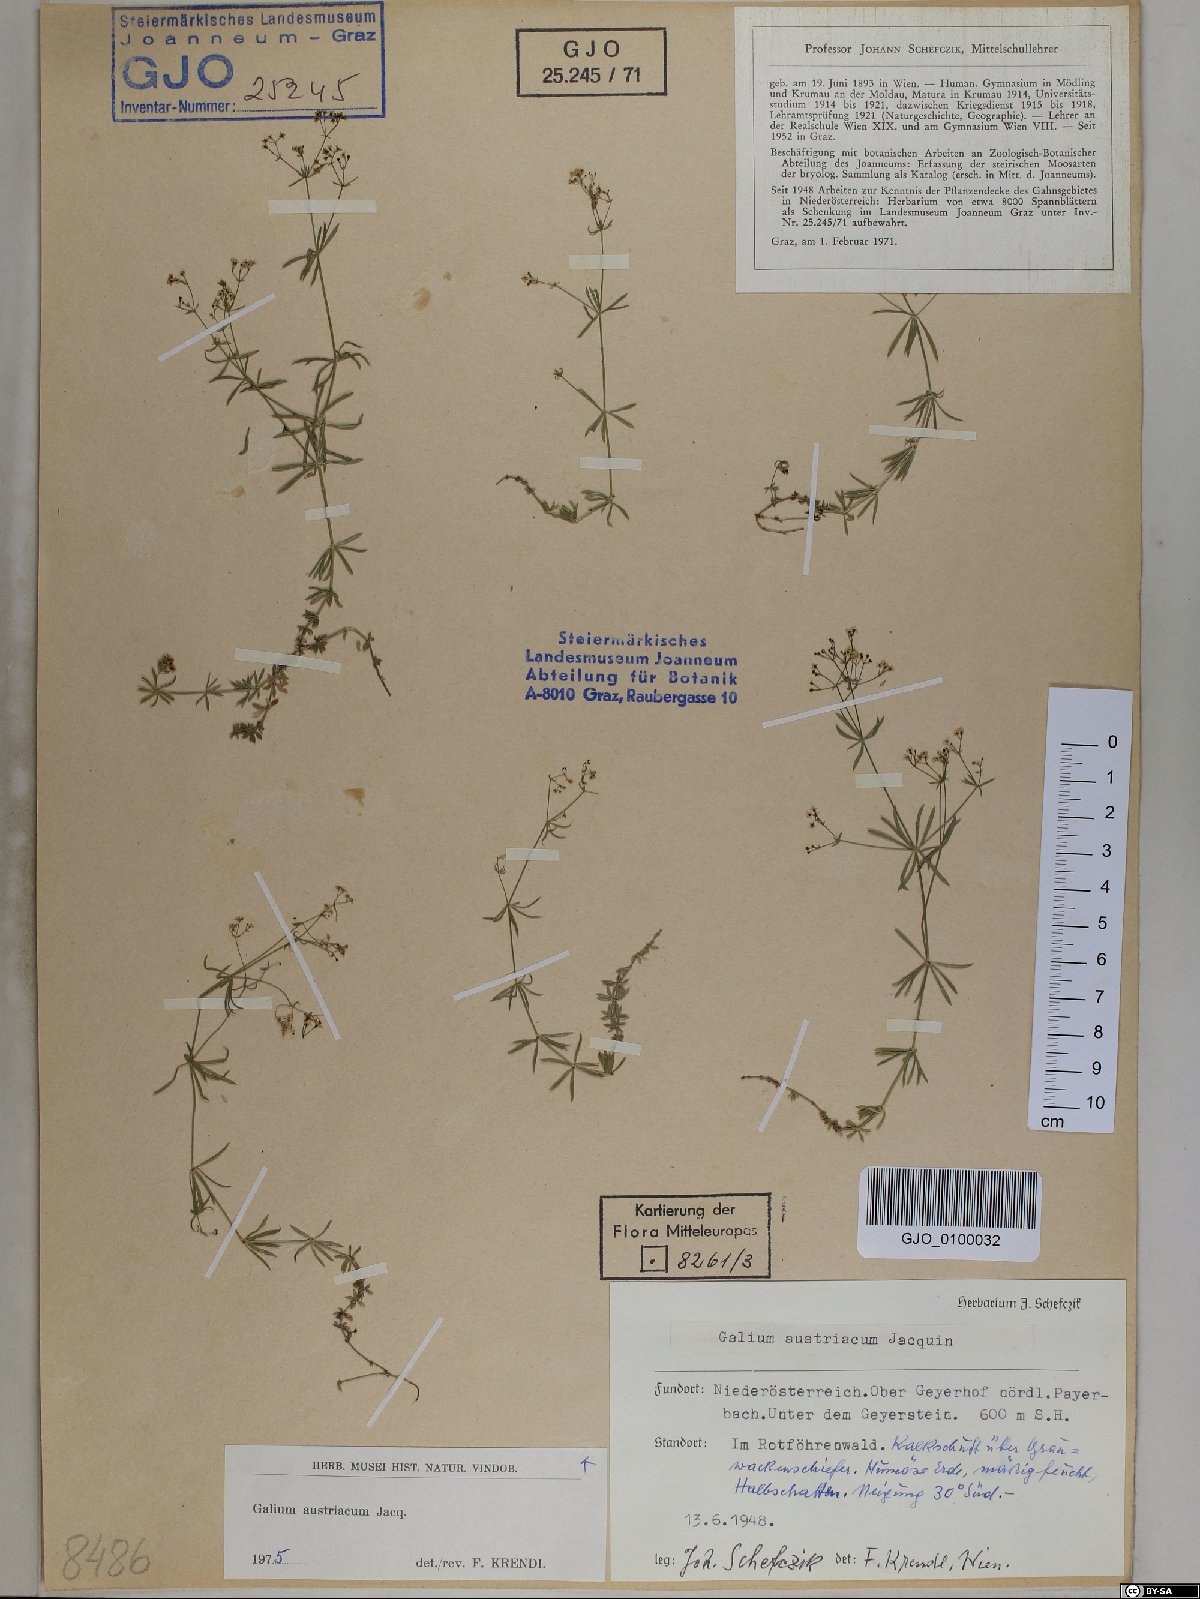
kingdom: Plantae
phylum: Tracheophyta
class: Magnoliopsida
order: Gentianales
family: Rubiaceae
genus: Galium
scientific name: Galium austriacum
